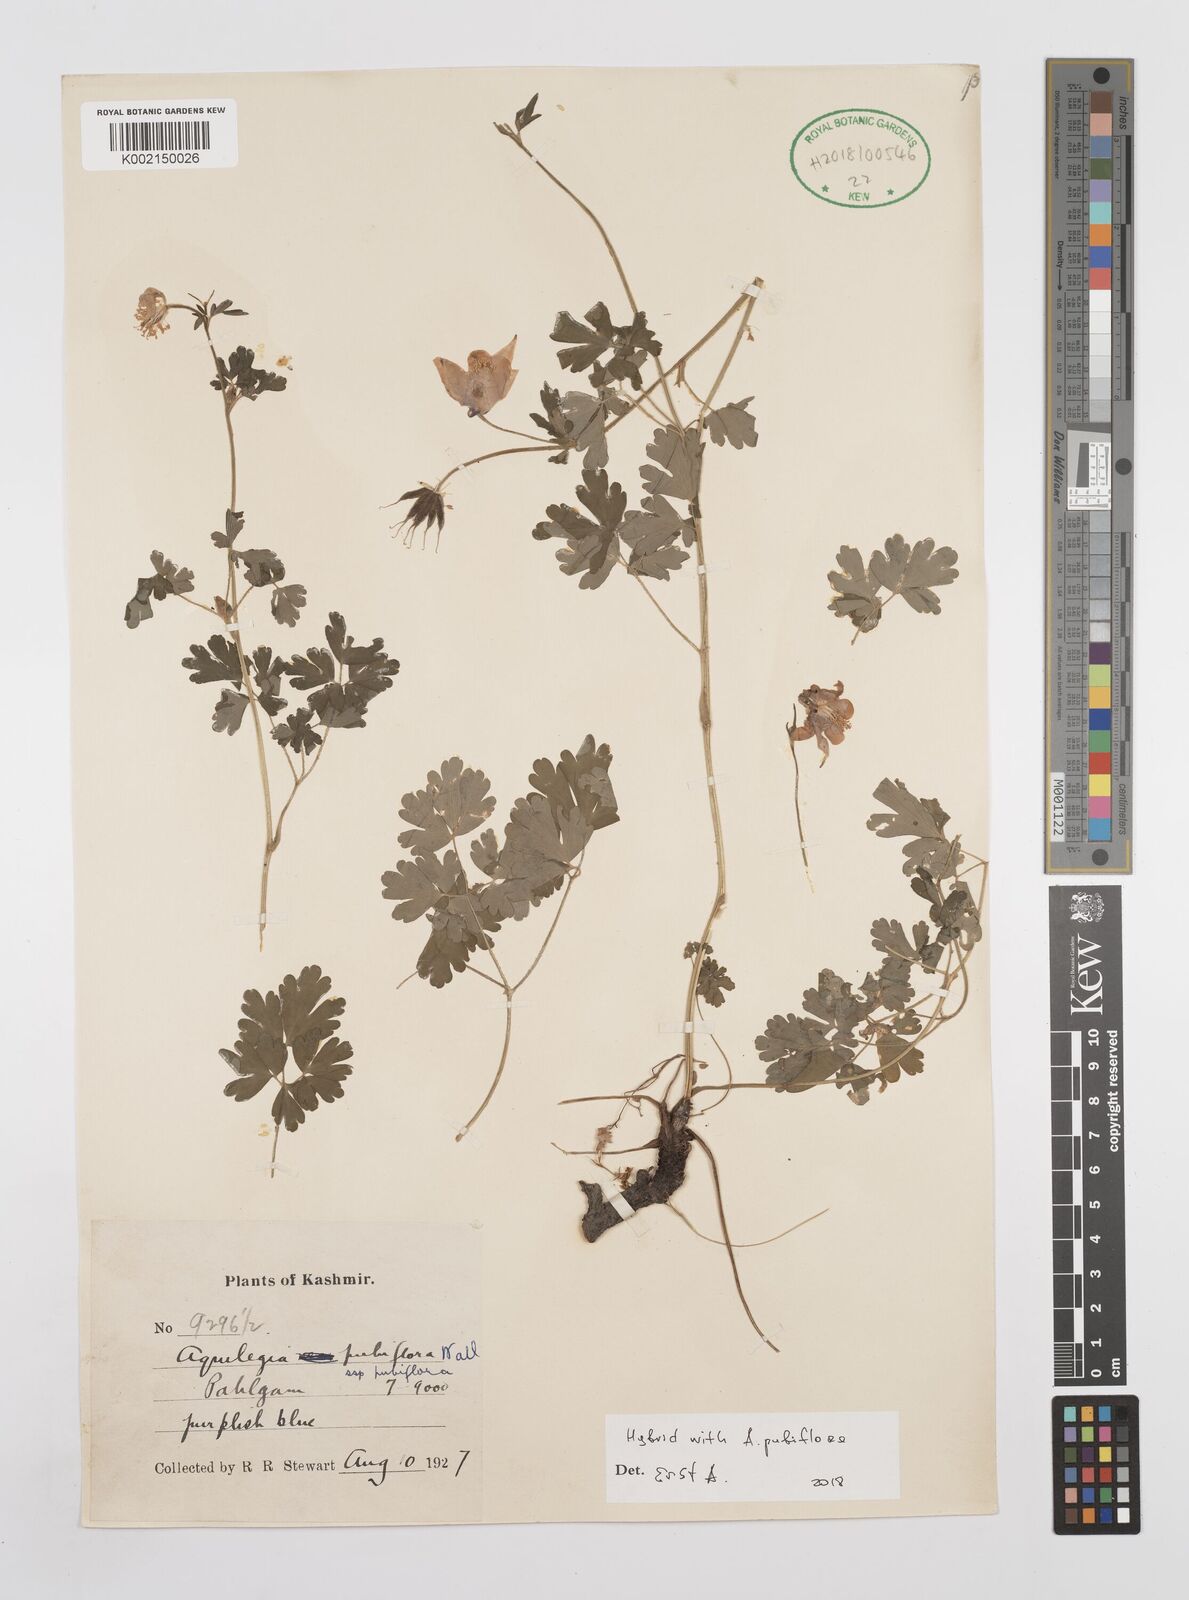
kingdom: Plantae
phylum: Tracheophyta
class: Magnoliopsida
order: Ranunculales
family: Ranunculaceae
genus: Aquilegia
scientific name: Aquilegia pubiflora
